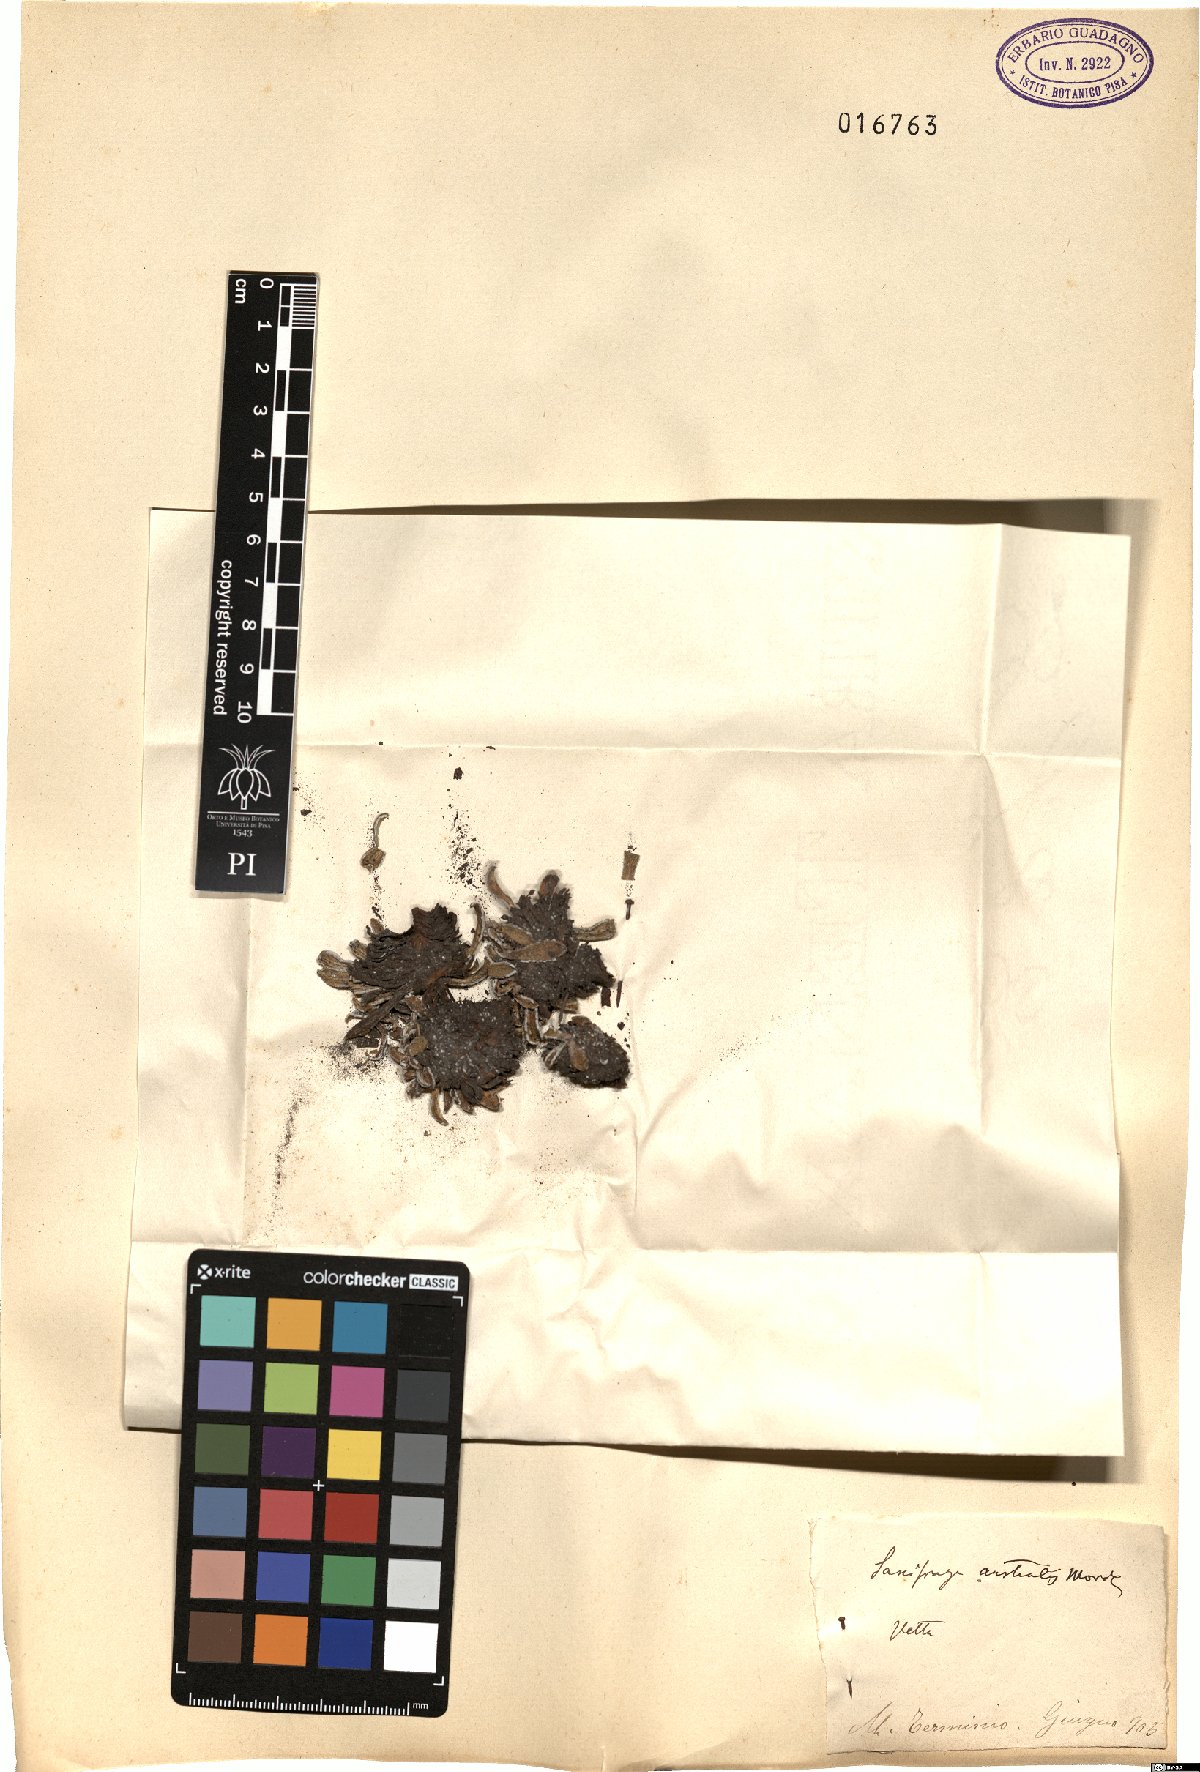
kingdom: Plantae
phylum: Tracheophyta
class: Magnoliopsida
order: Saxifragales
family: Saxifragaceae
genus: Saxifraga
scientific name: Saxifraga callosa
